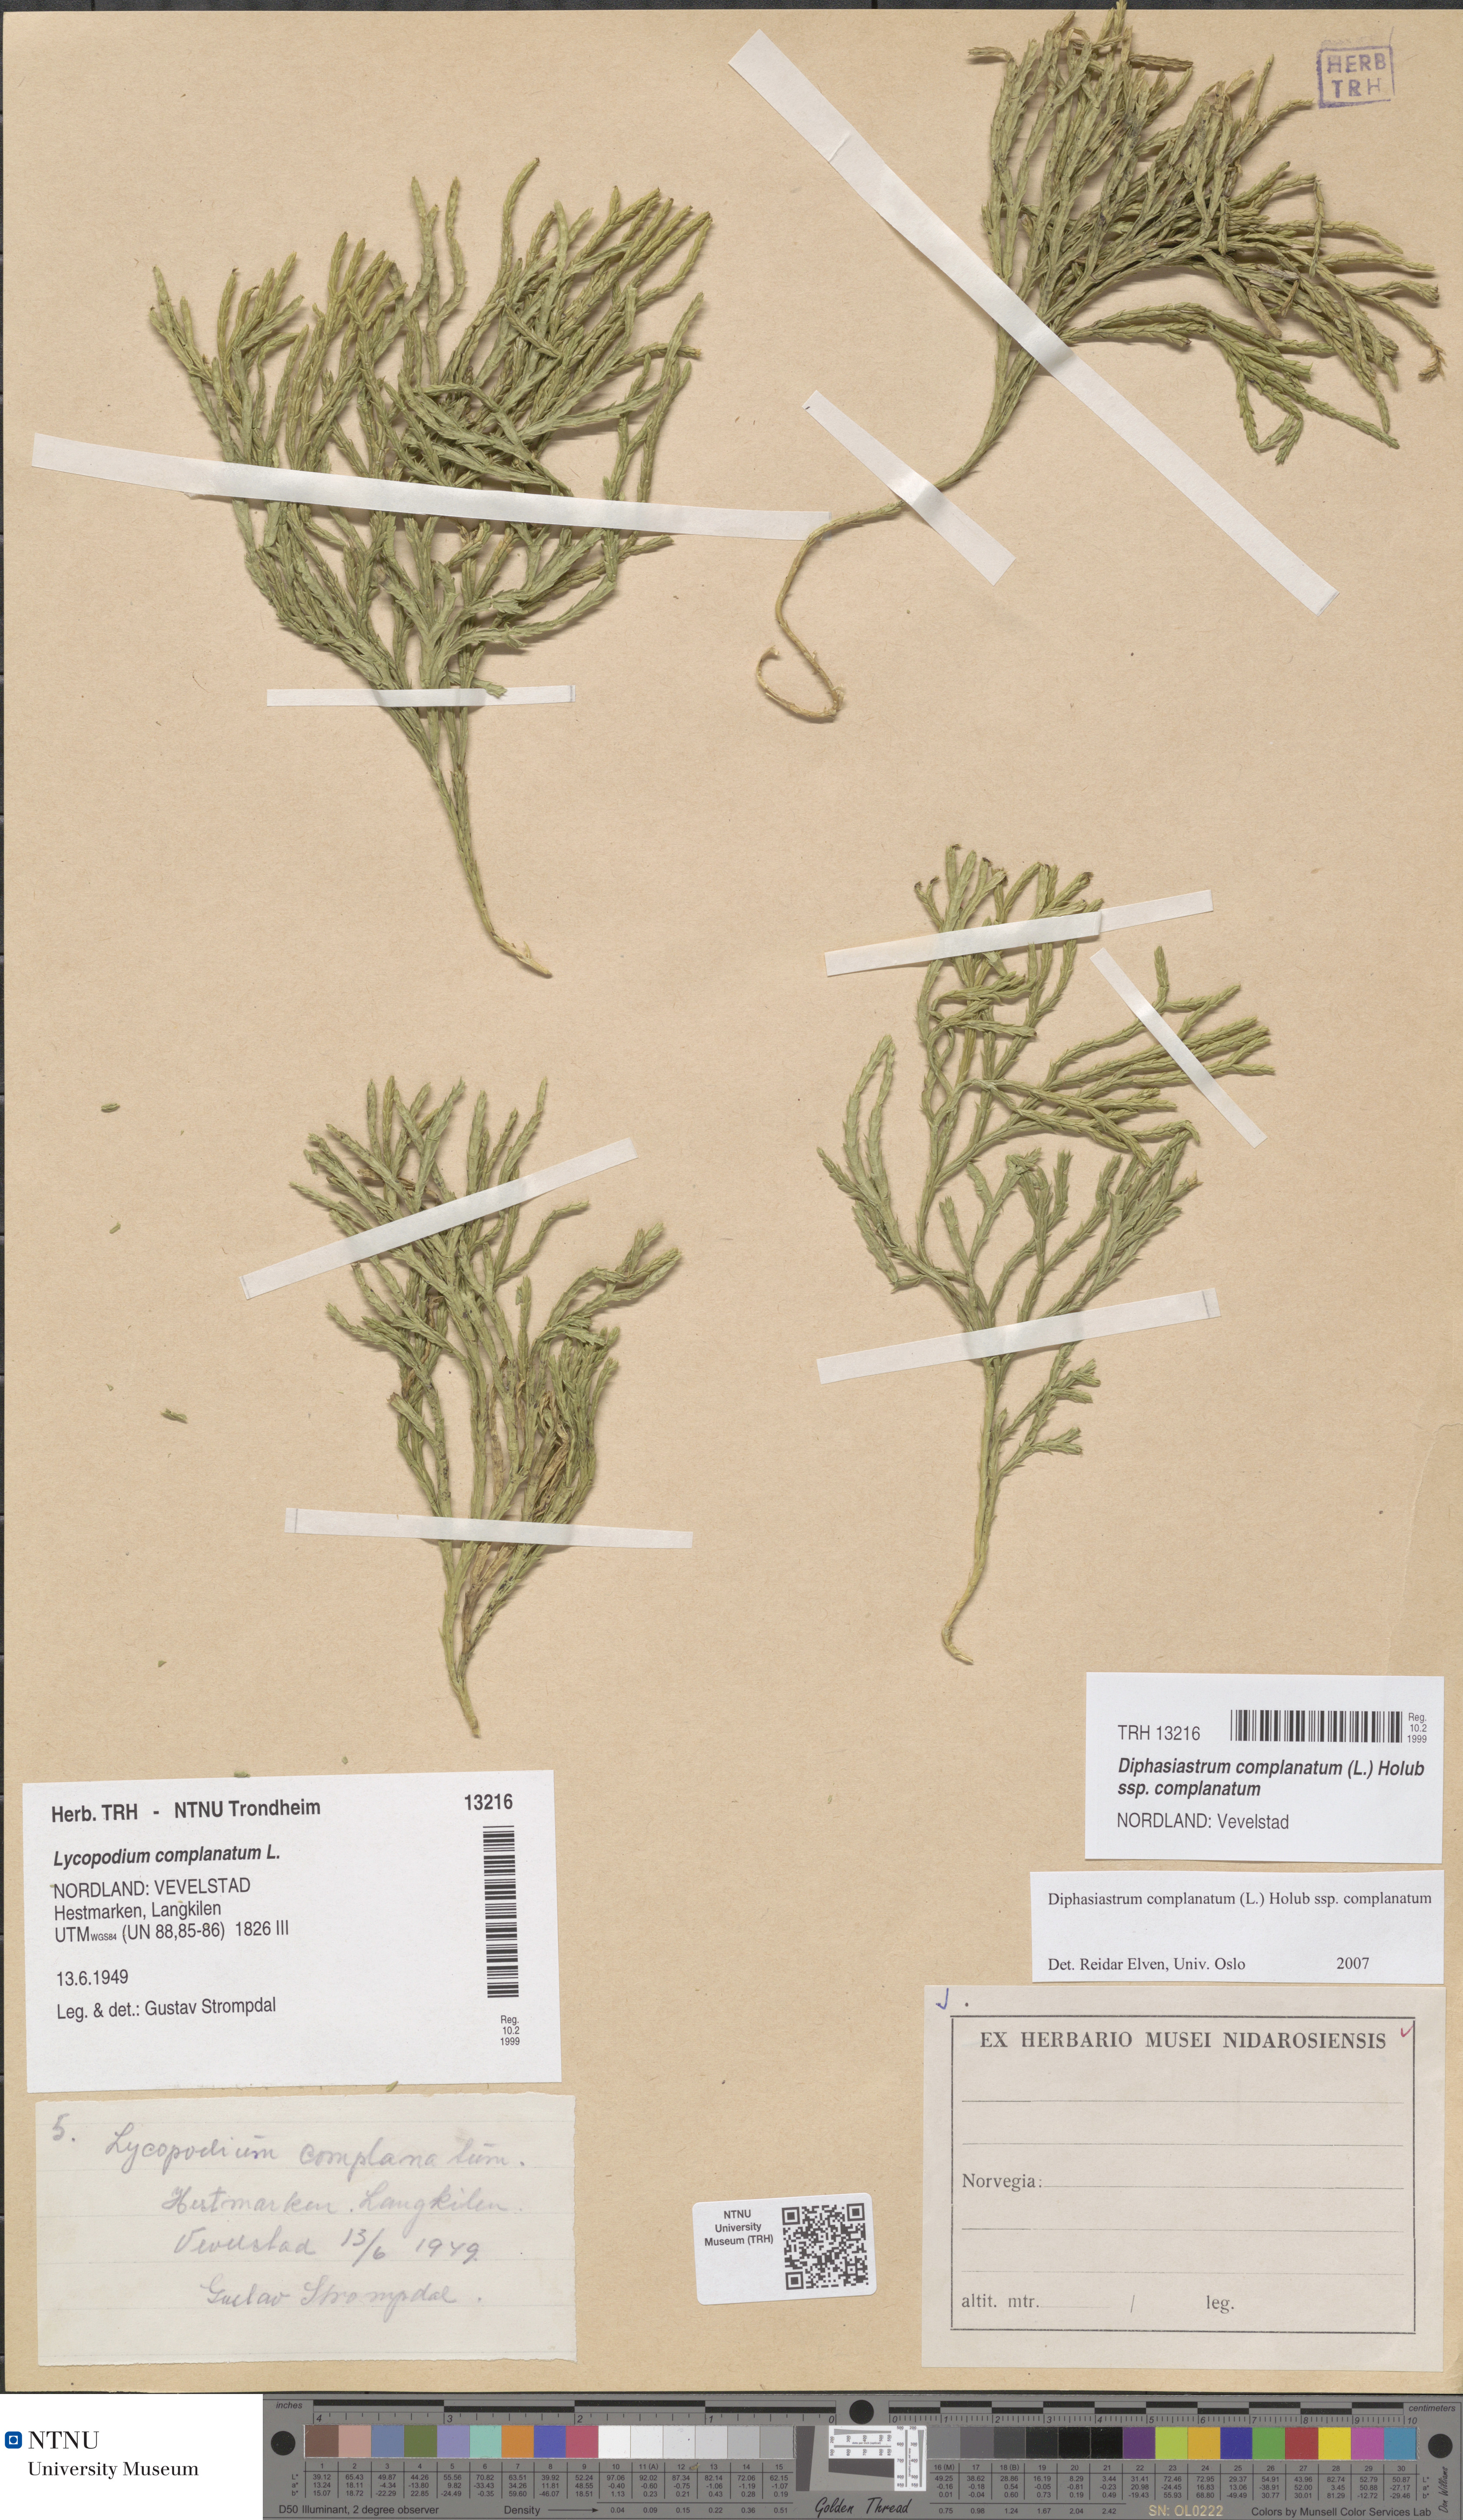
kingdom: Plantae
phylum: Tracheophyta
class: Lycopodiopsida
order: Lycopodiales
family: Lycopodiaceae
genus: Diphasiastrum
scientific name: Diphasiastrum complanatum
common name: Northern running-pine
